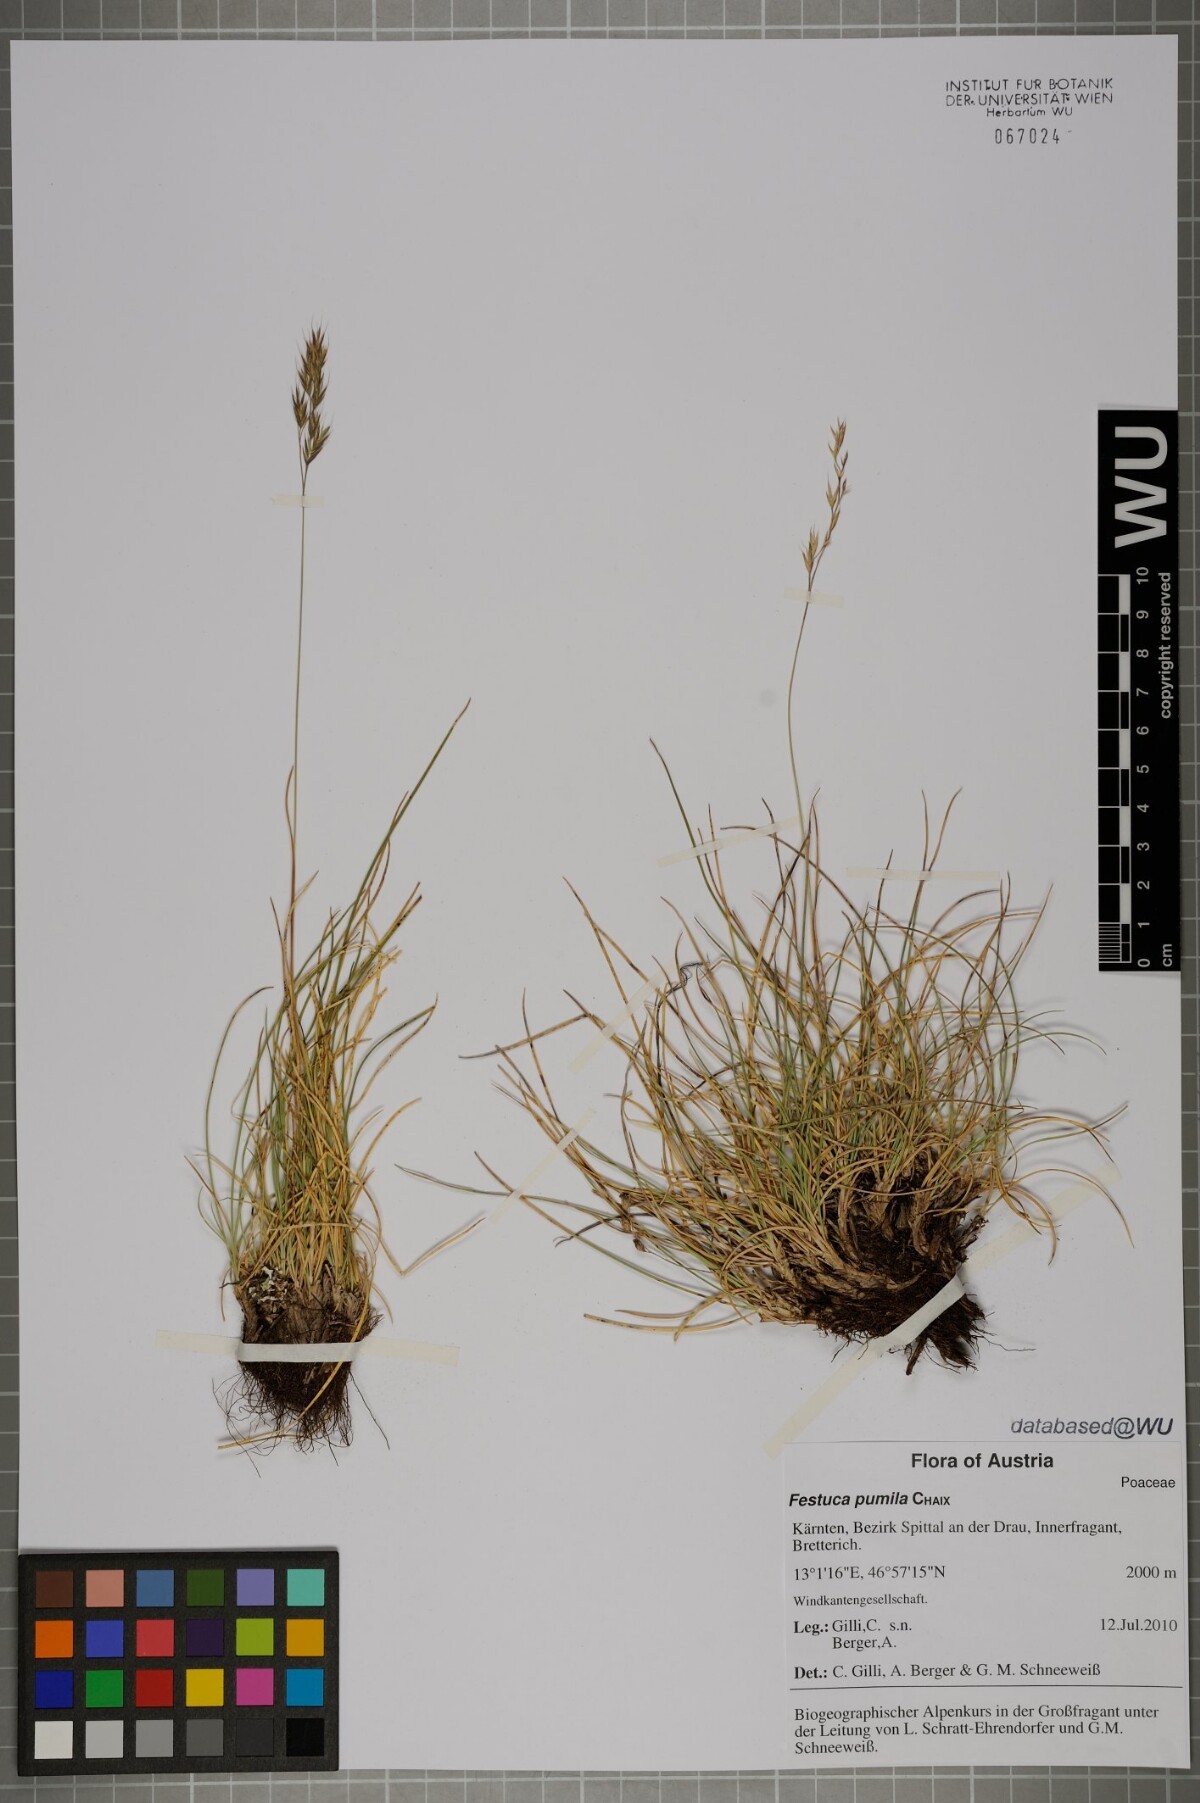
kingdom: Plantae
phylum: Tracheophyta
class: Liliopsida
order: Poales
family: Poaceae
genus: Festuca
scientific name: Festuca pseudodura
